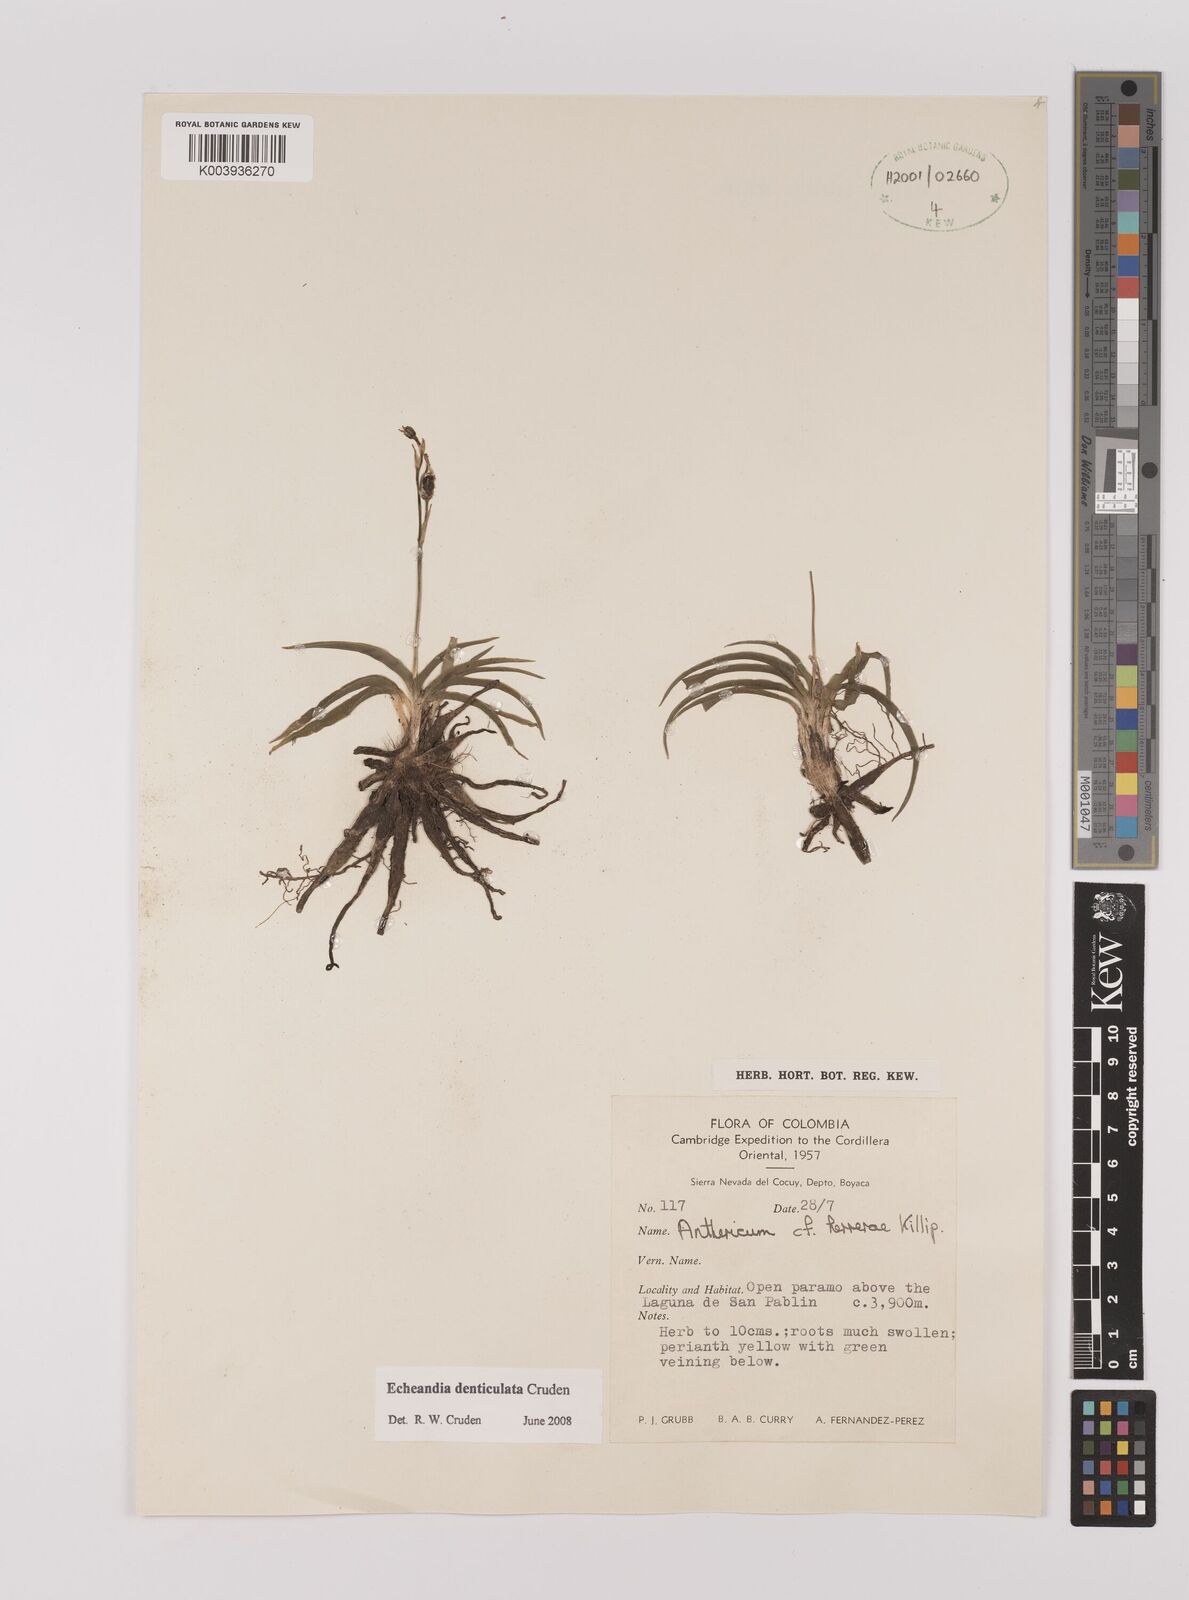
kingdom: Plantae
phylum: Tracheophyta
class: Liliopsida
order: Asparagales
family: Asparagaceae
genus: Echeandia
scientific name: Echeandia flavescens
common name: Amberlily
